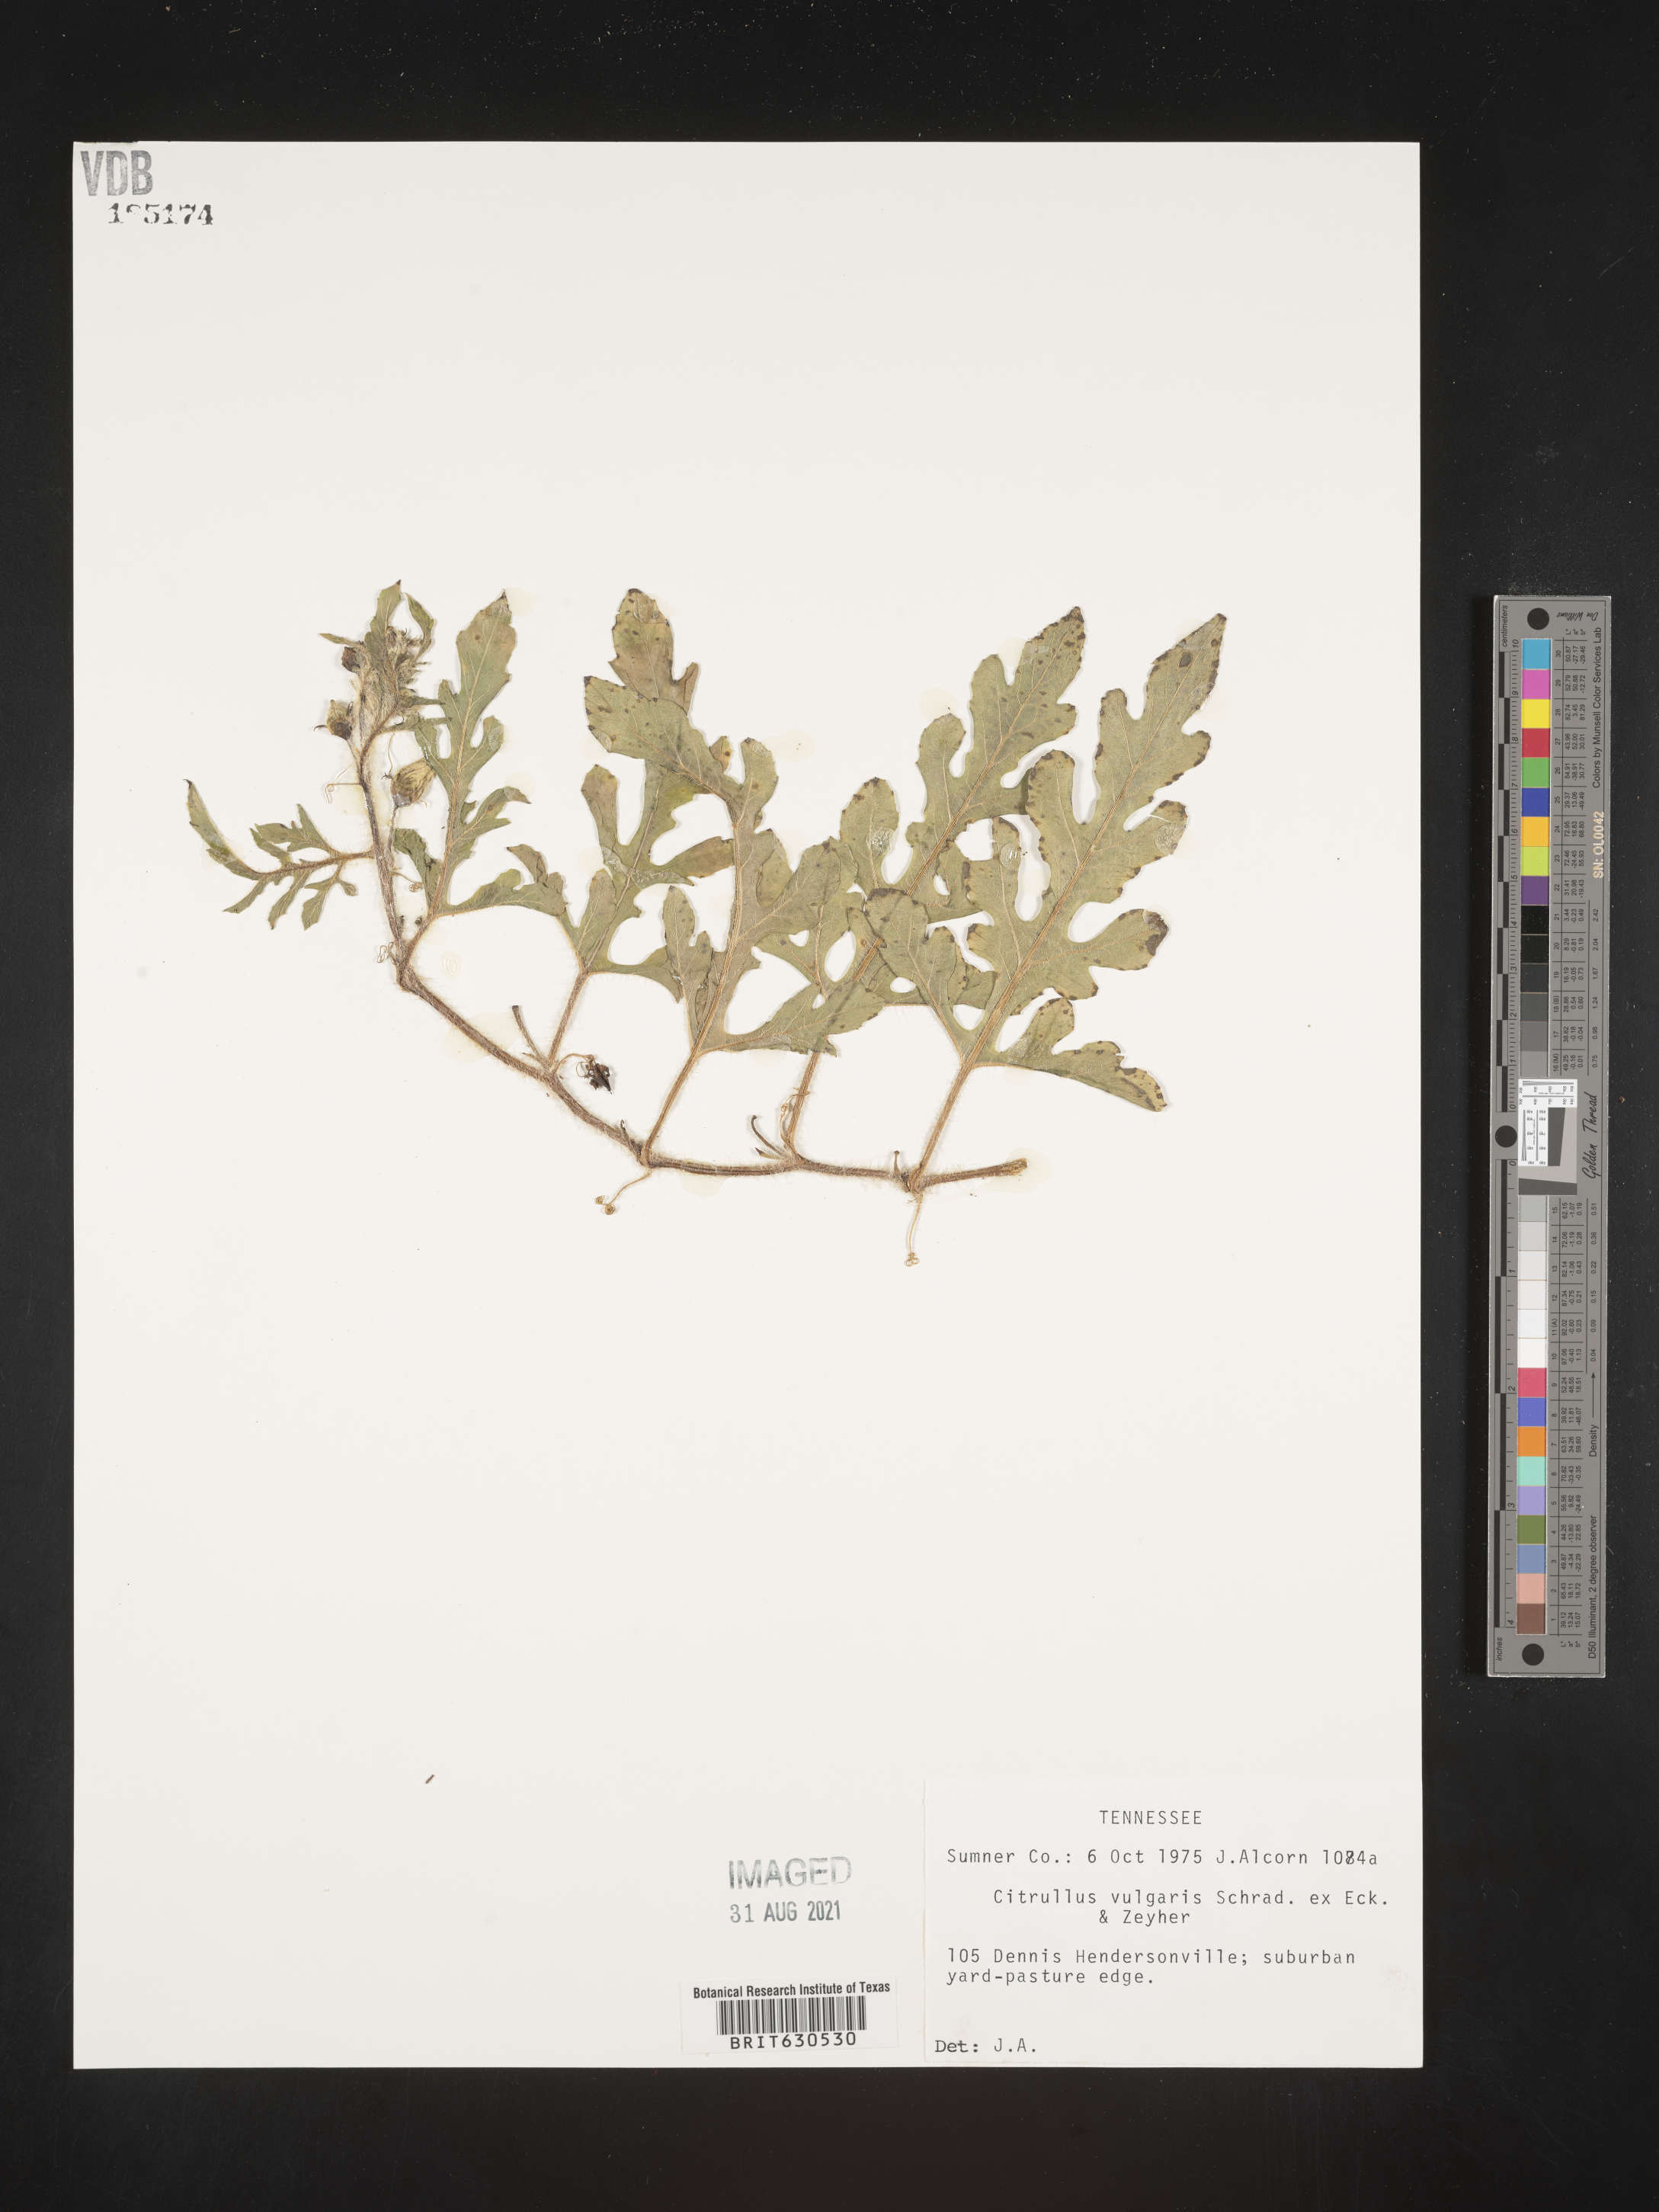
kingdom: Plantae
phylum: Tracheophyta
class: Magnoliopsida
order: Cucurbitales
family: Cucurbitaceae
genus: Citrullus
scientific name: Citrullus lanatus
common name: Watermelon
